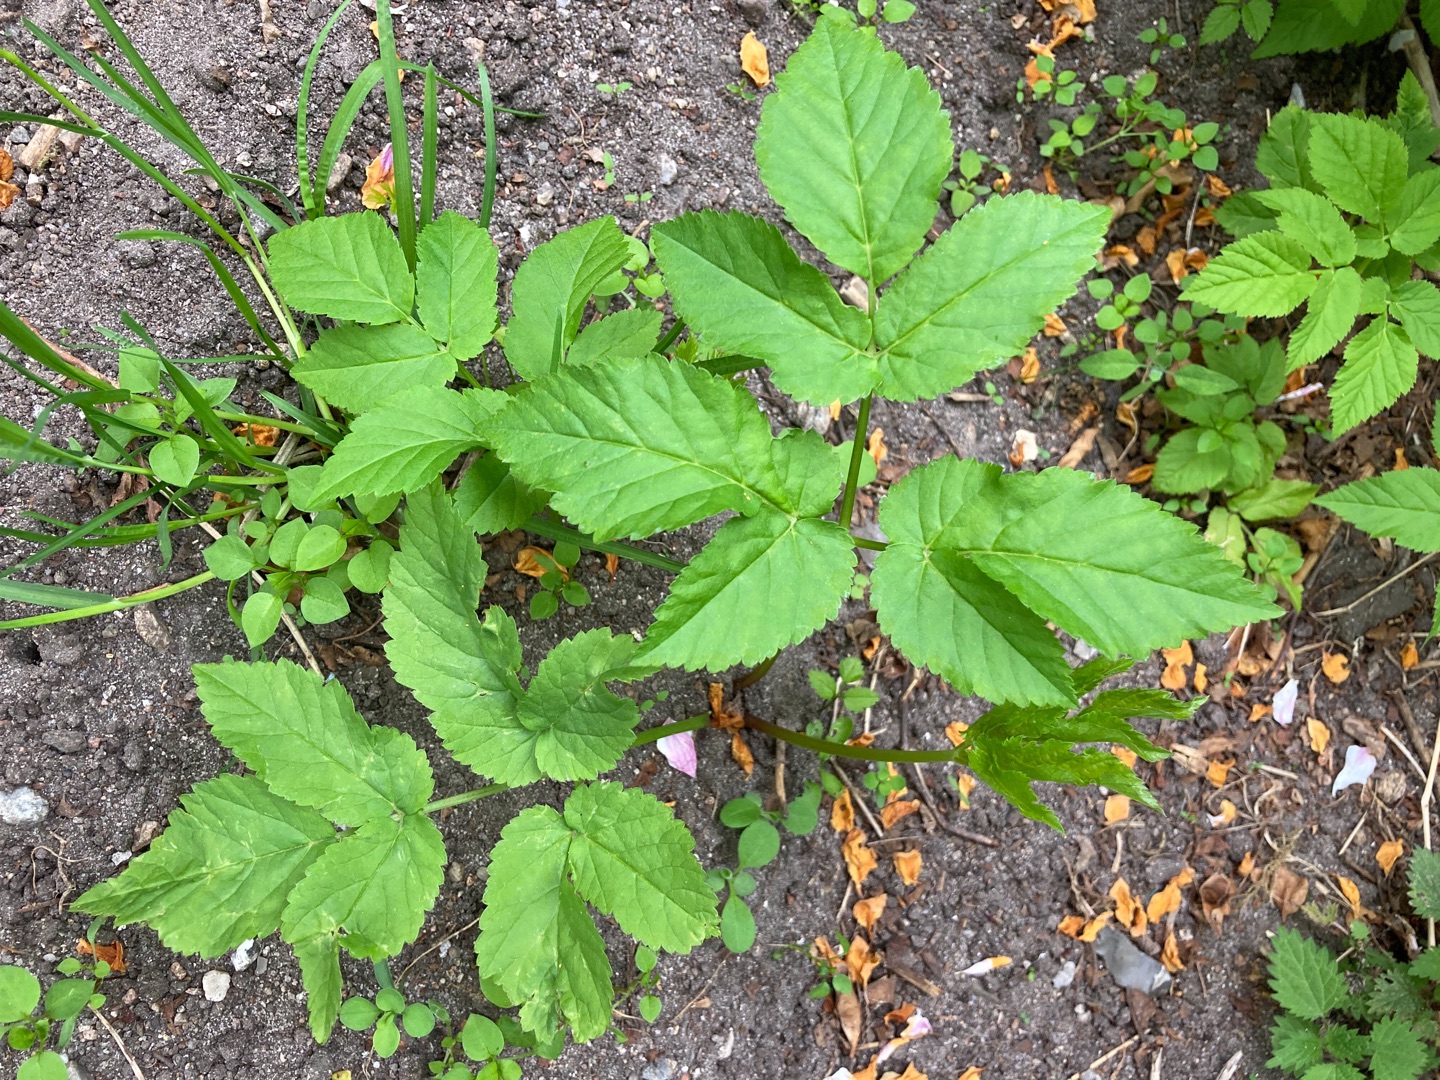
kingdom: Plantae
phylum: Tracheophyta
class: Magnoliopsida
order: Apiales
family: Apiaceae
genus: Aegopodium
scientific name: Aegopodium podagraria
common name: Skvalderkål
